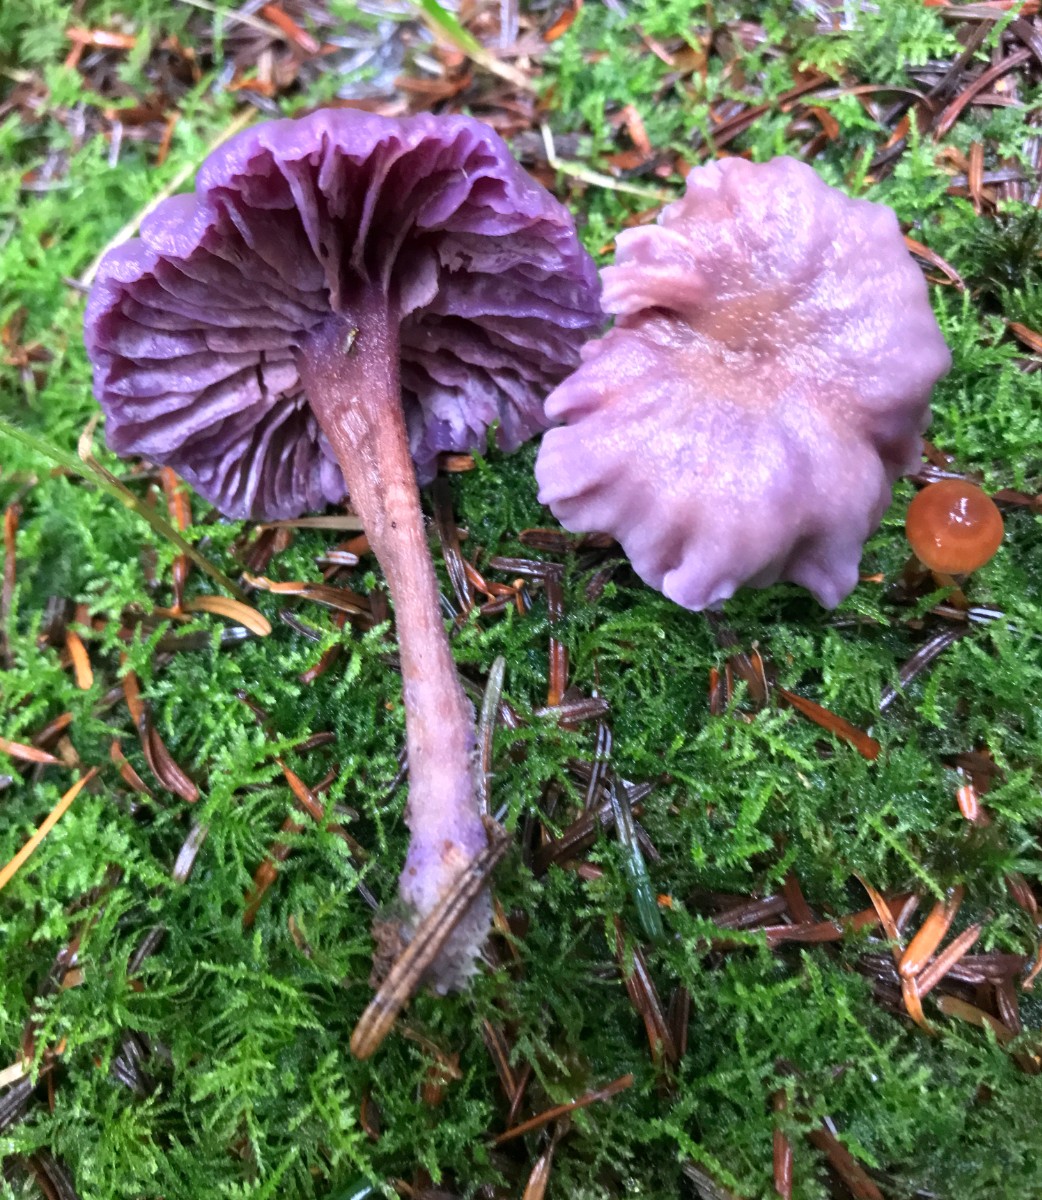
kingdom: Fungi
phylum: Basidiomycota
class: Agaricomycetes
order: Agaricales
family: Hydnangiaceae
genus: Laccaria
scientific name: Laccaria amethystina
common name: violet ametysthat
